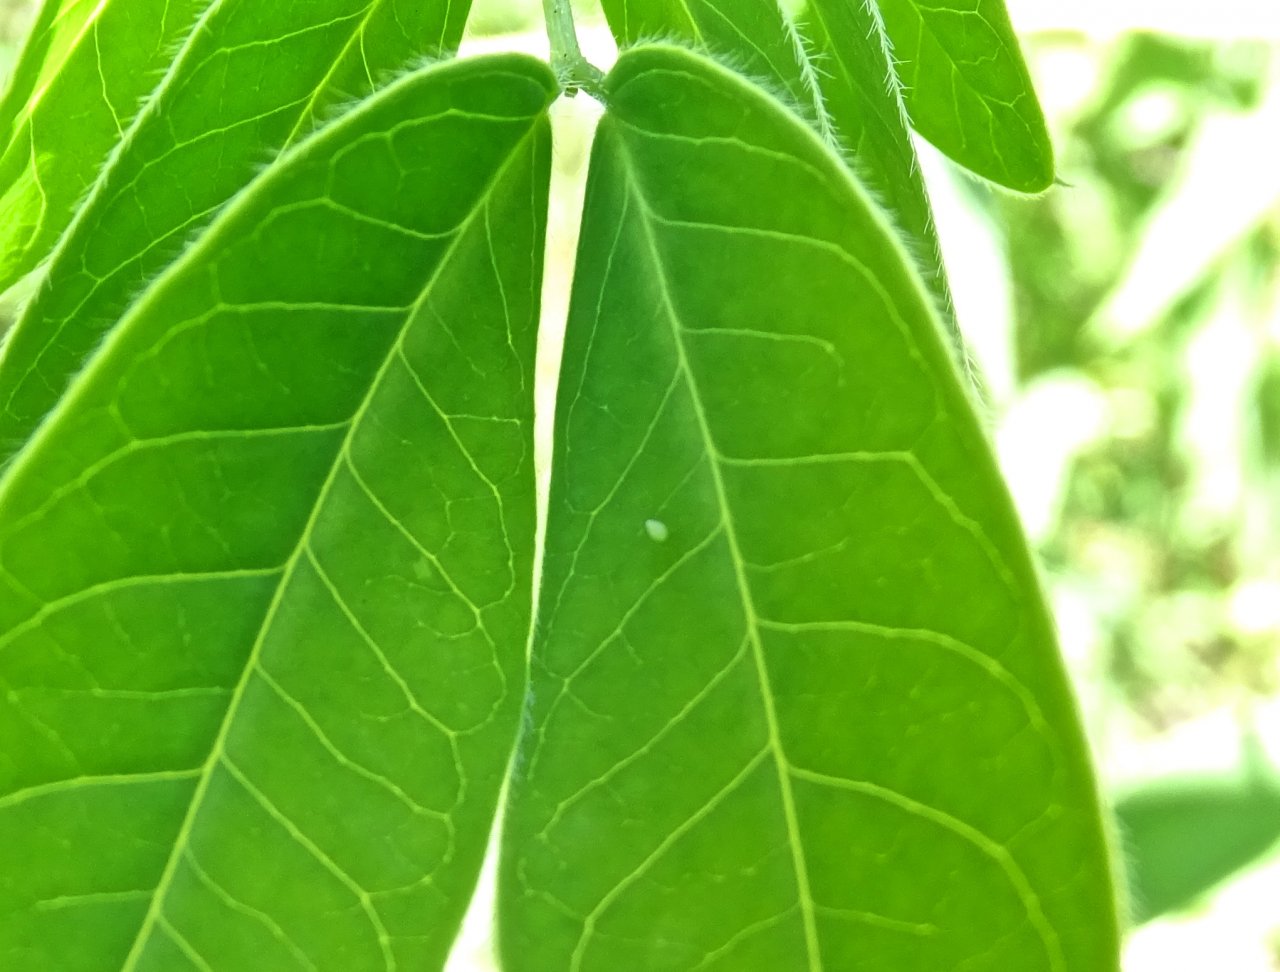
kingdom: Animalia
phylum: Arthropoda
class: Insecta
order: Lepidoptera
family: Pieridae
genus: Abaeis
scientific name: Abaeis nicippe
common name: Sleepy Orange
